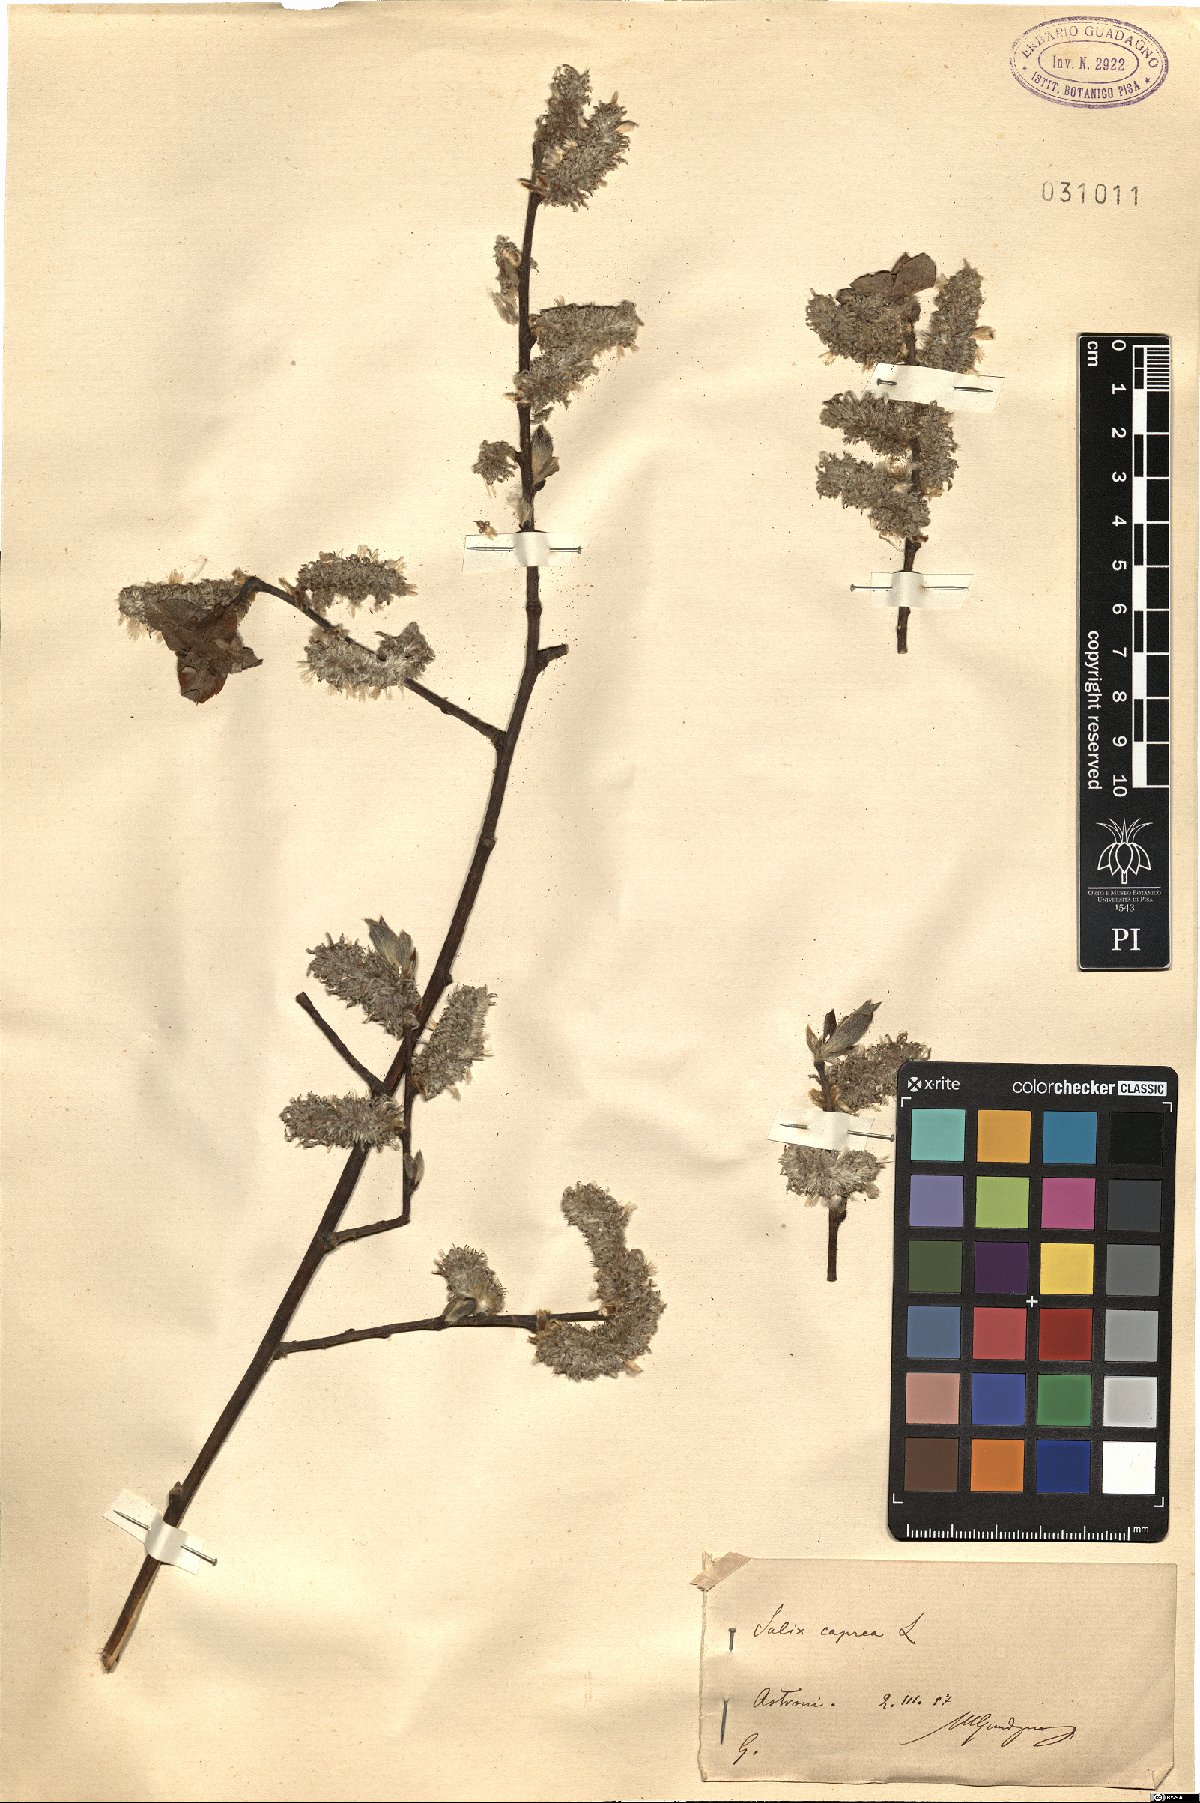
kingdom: Plantae
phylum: Tracheophyta
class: Magnoliopsida
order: Malpighiales
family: Salicaceae
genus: Salix
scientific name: Salix caprea
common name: Goat willow
